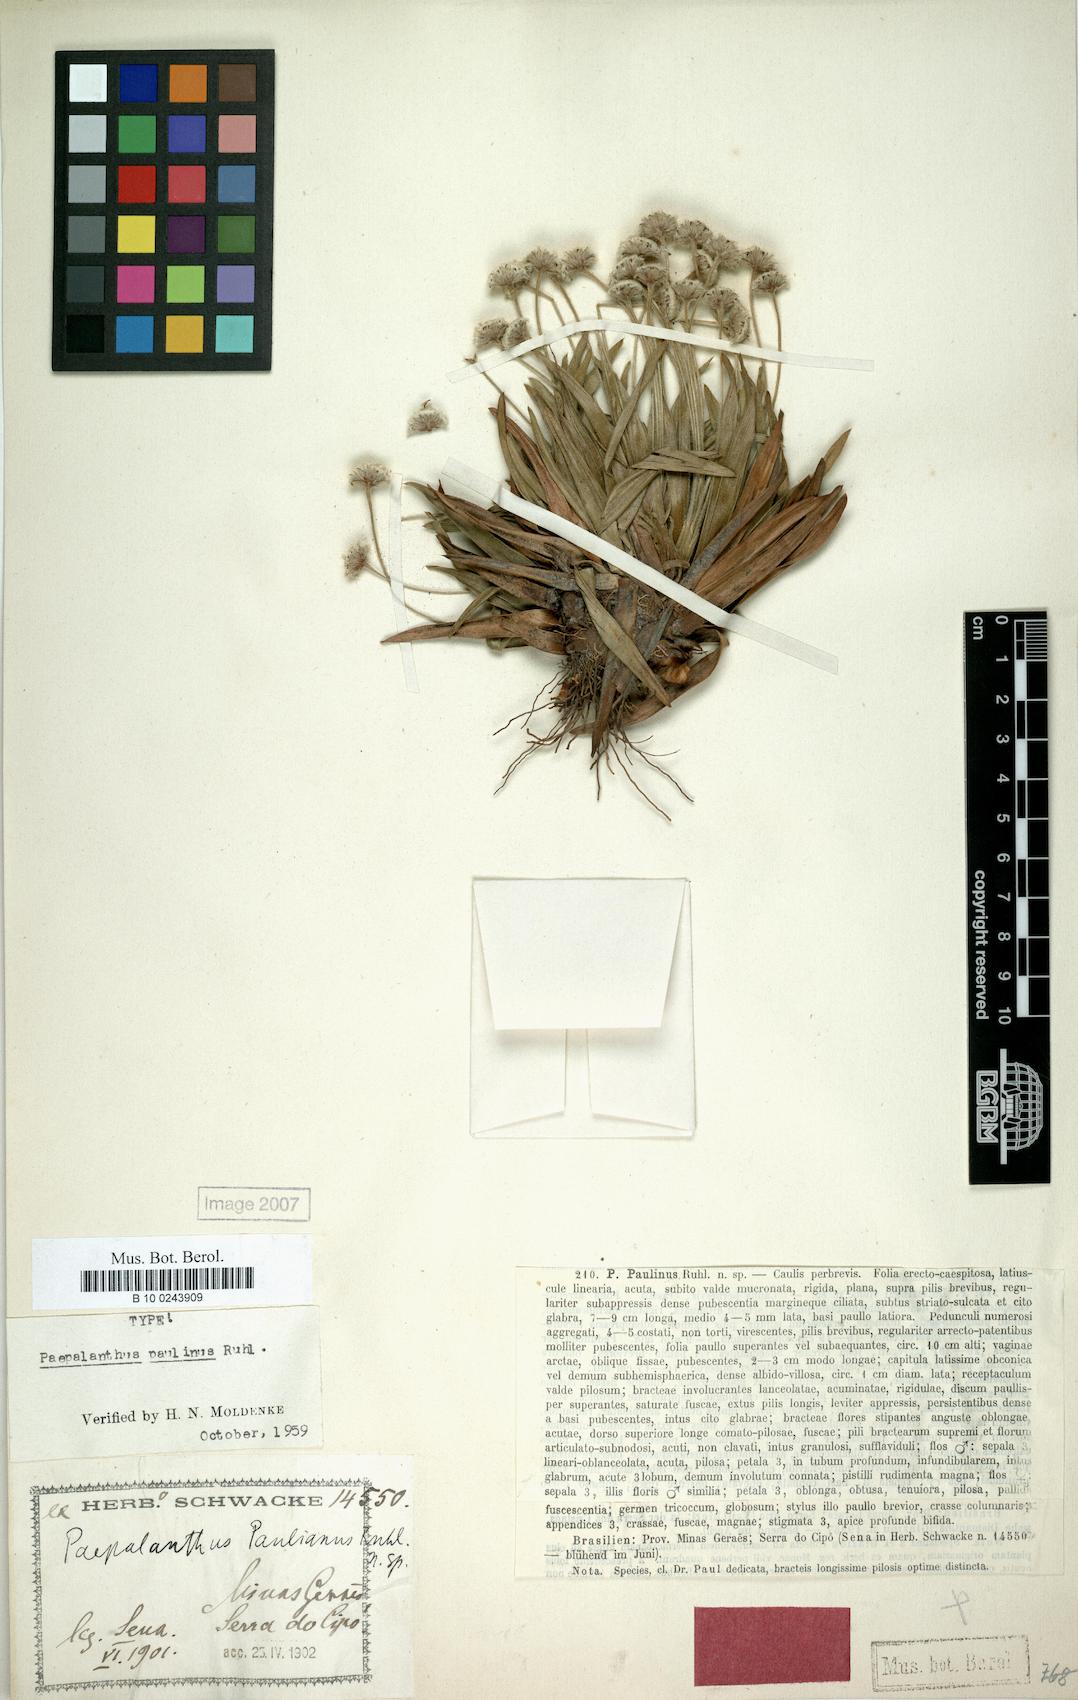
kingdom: Plantae
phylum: Tracheophyta
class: Liliopsida
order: Poales
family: Eriocaulaceae
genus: Paepalanthus
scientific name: Paepalanthus paulinus
